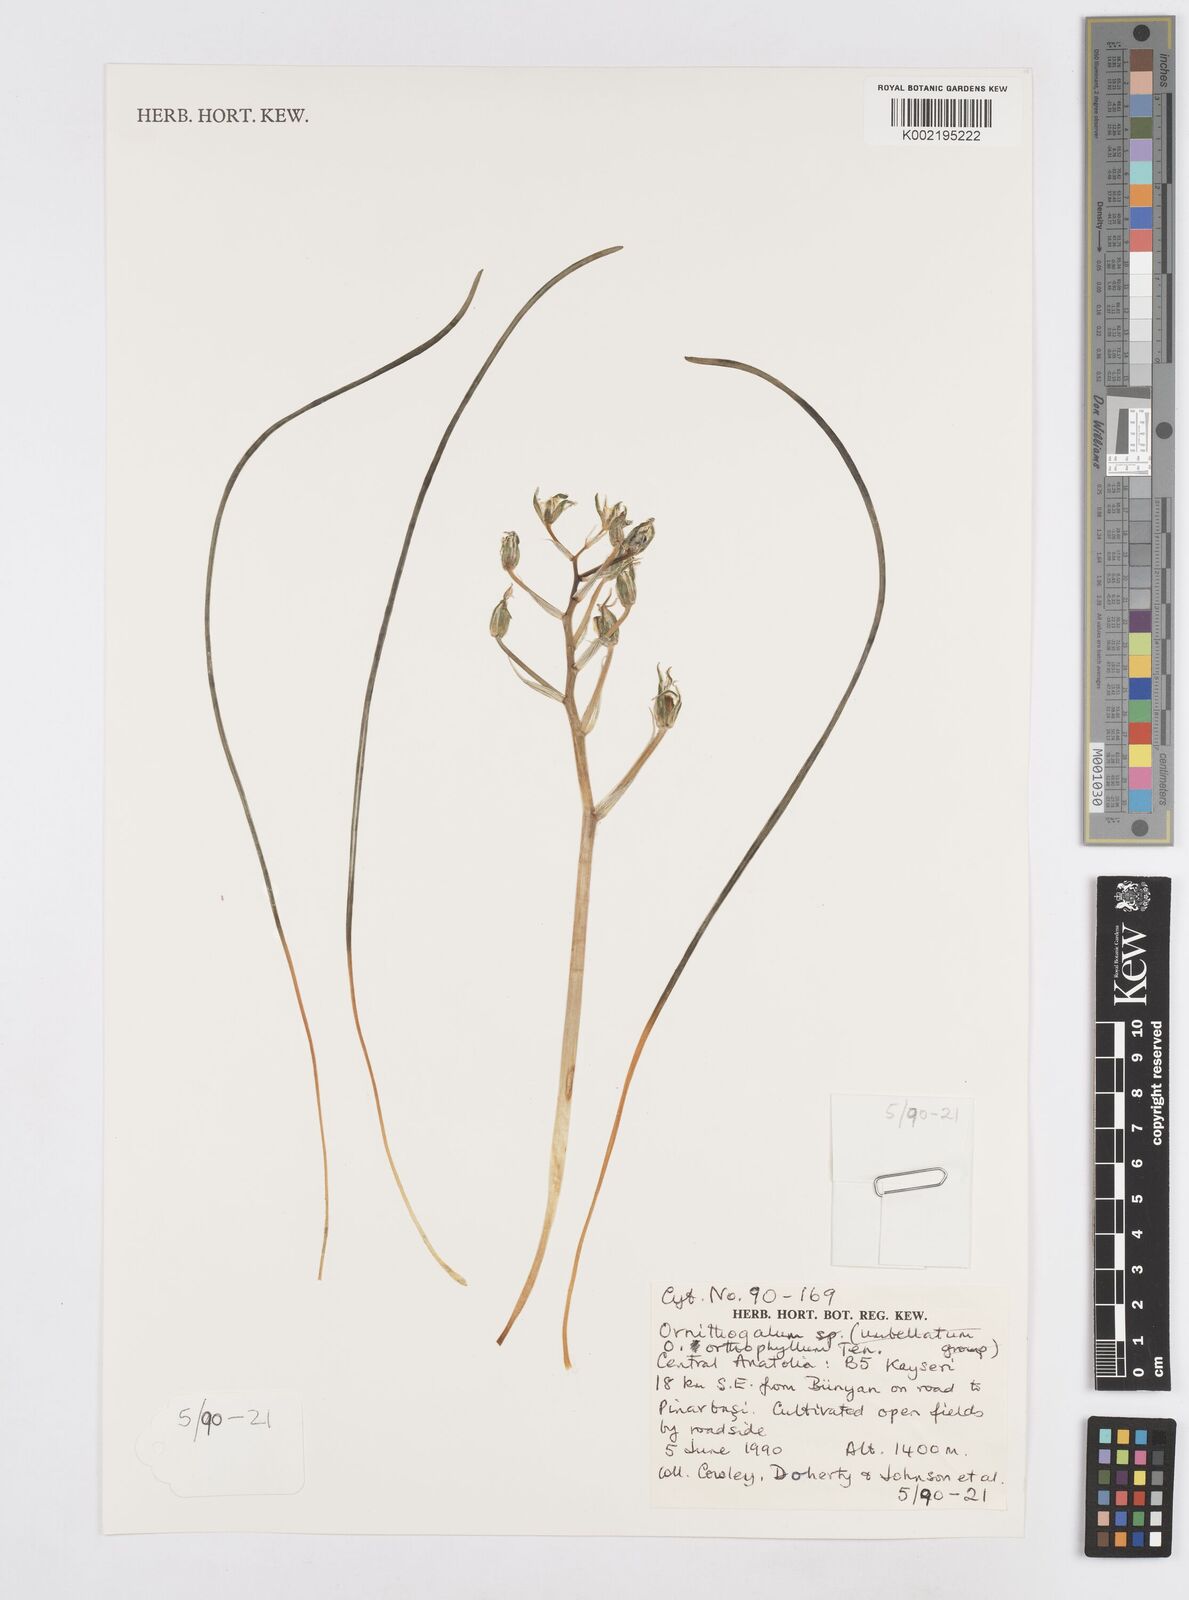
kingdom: Plantae
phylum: Tracheophyta
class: Liliopsida
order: Asparagales
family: Asparagaceae
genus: Ornithogalum
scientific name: Ornithogalum orthophyllum
